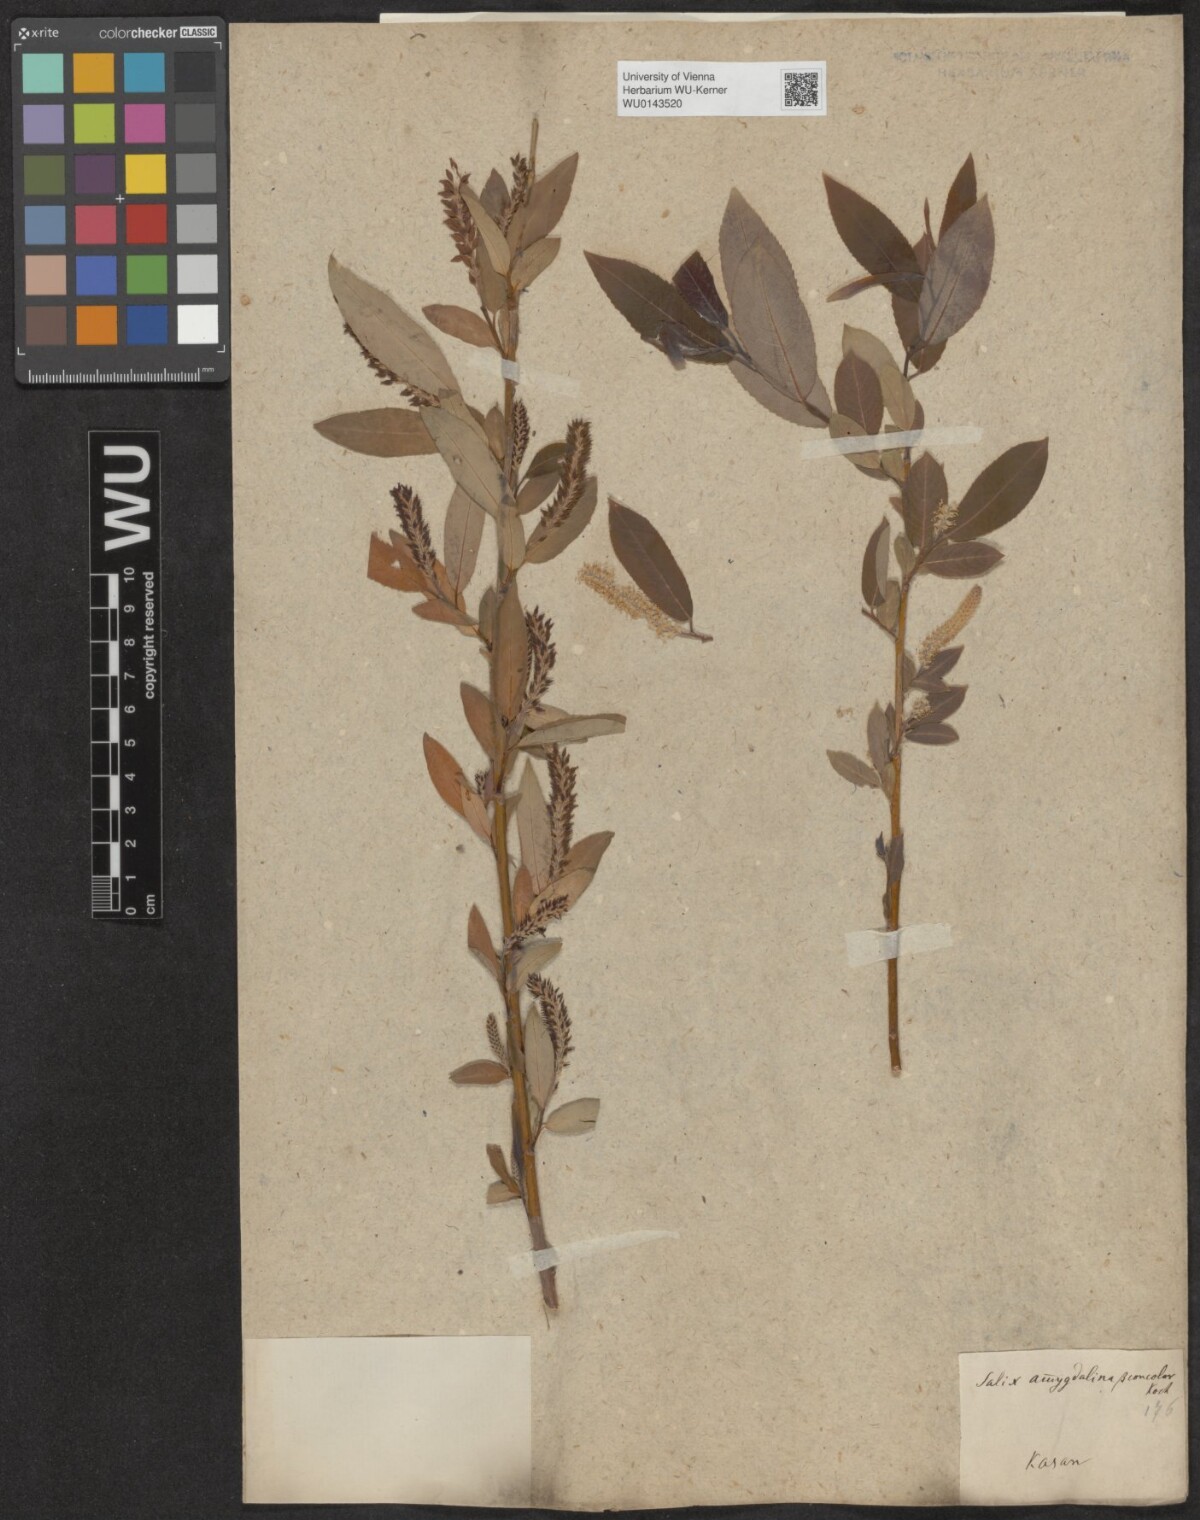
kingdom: Plantae
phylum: Tracheophyta
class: Magnoliopsida
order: Malpighiales
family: Salicaceae
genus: Salix
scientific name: Salix triandra
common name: Almond willow
